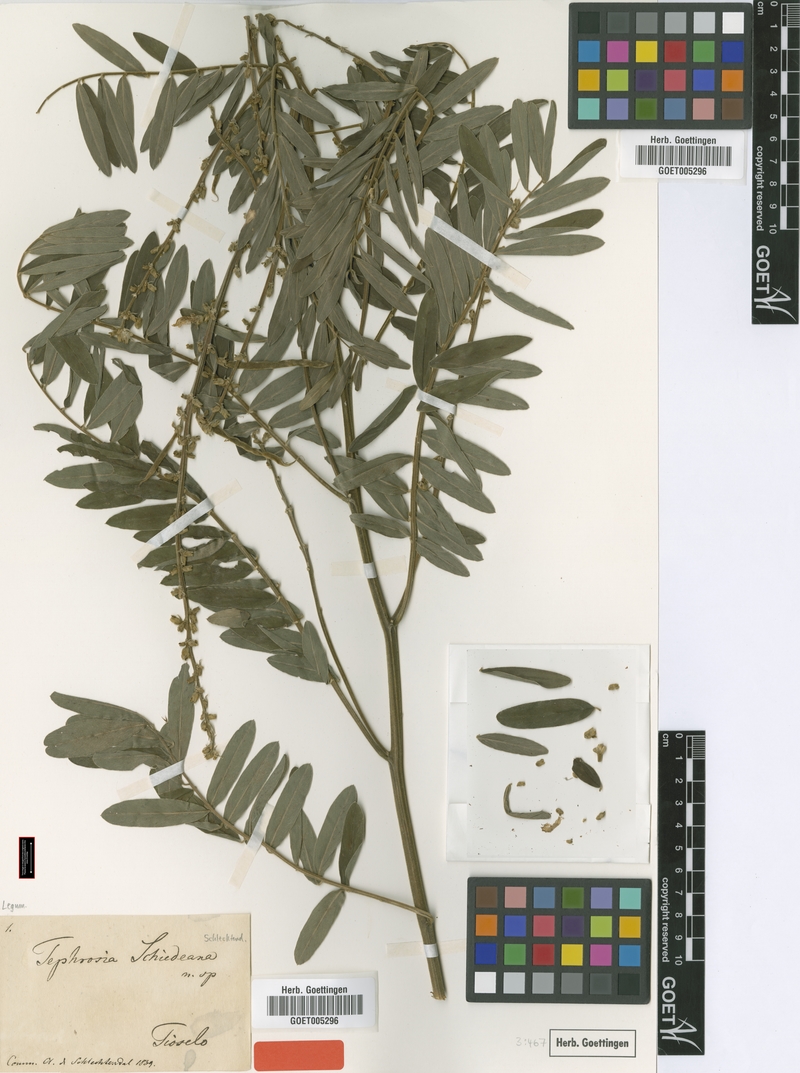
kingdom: Plantae
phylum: Tracheophyta
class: Magnoliopsida
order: Fabales
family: Fabaceae
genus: Tephrosia
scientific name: Tephrosia sinapou
